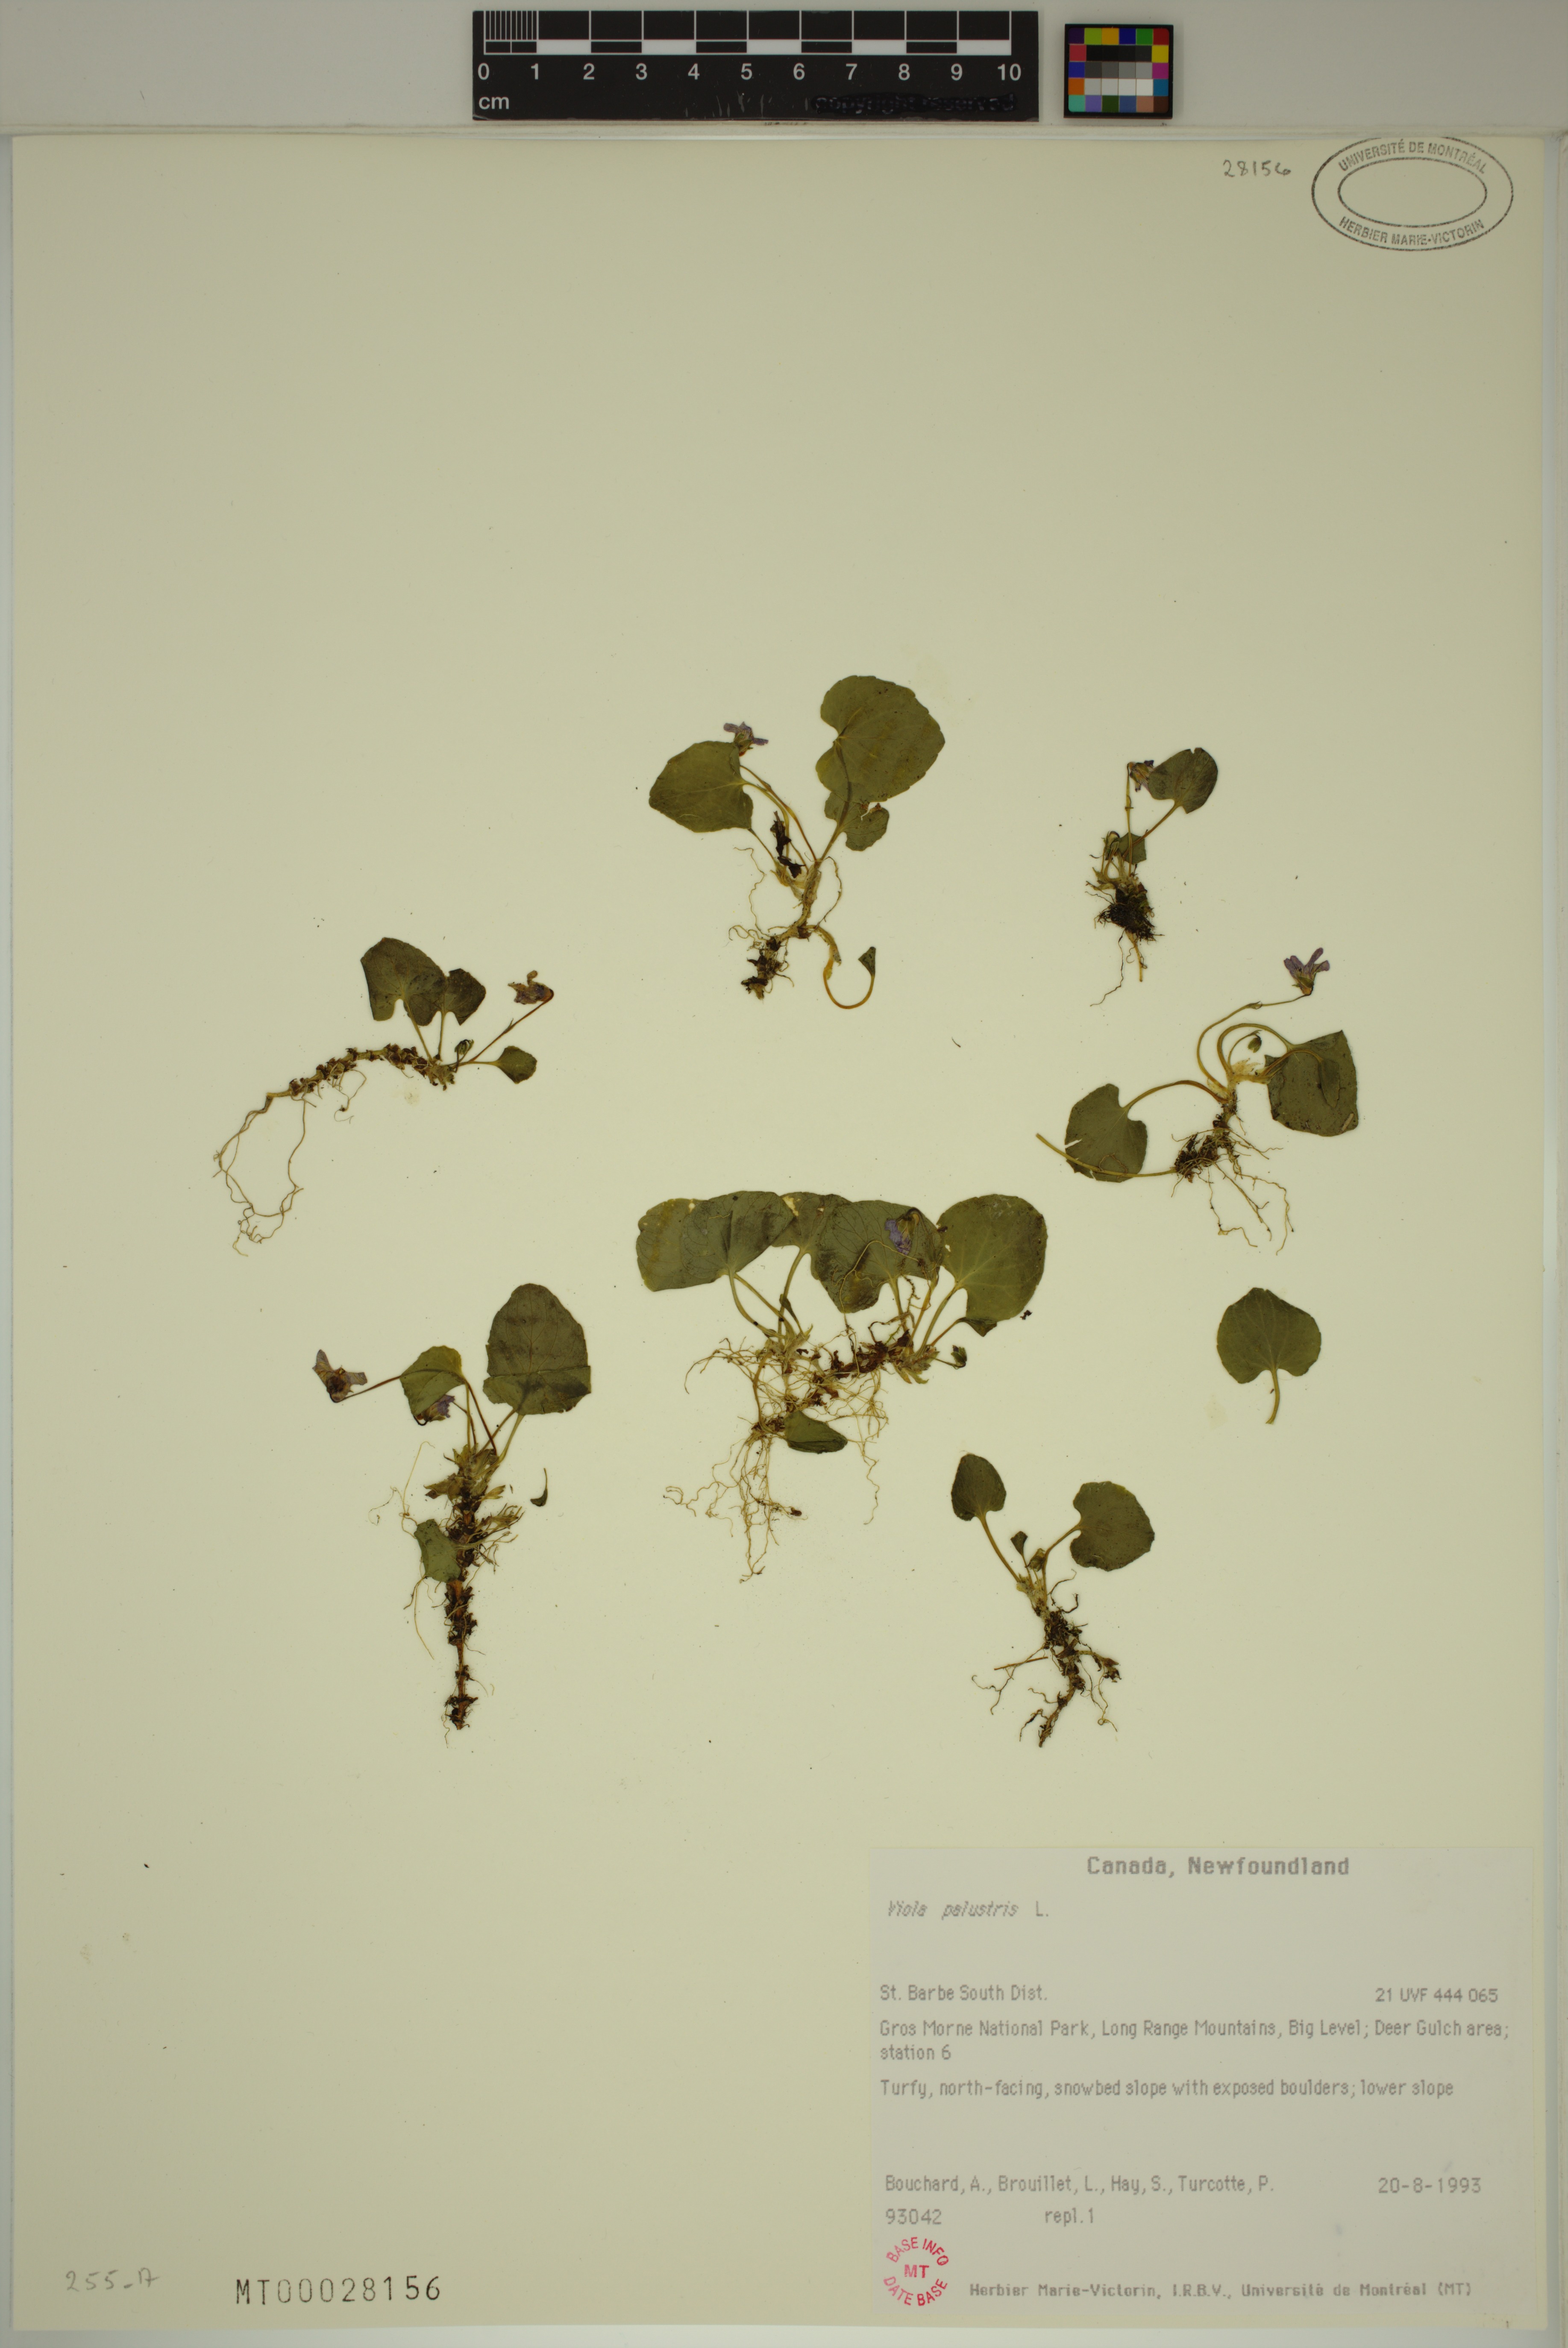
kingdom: Plantae
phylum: Tracheophyta
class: Magnoliopsida
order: Malpighiales
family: Violaceae
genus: Viola
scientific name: Viola palustris
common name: Marsh violet
